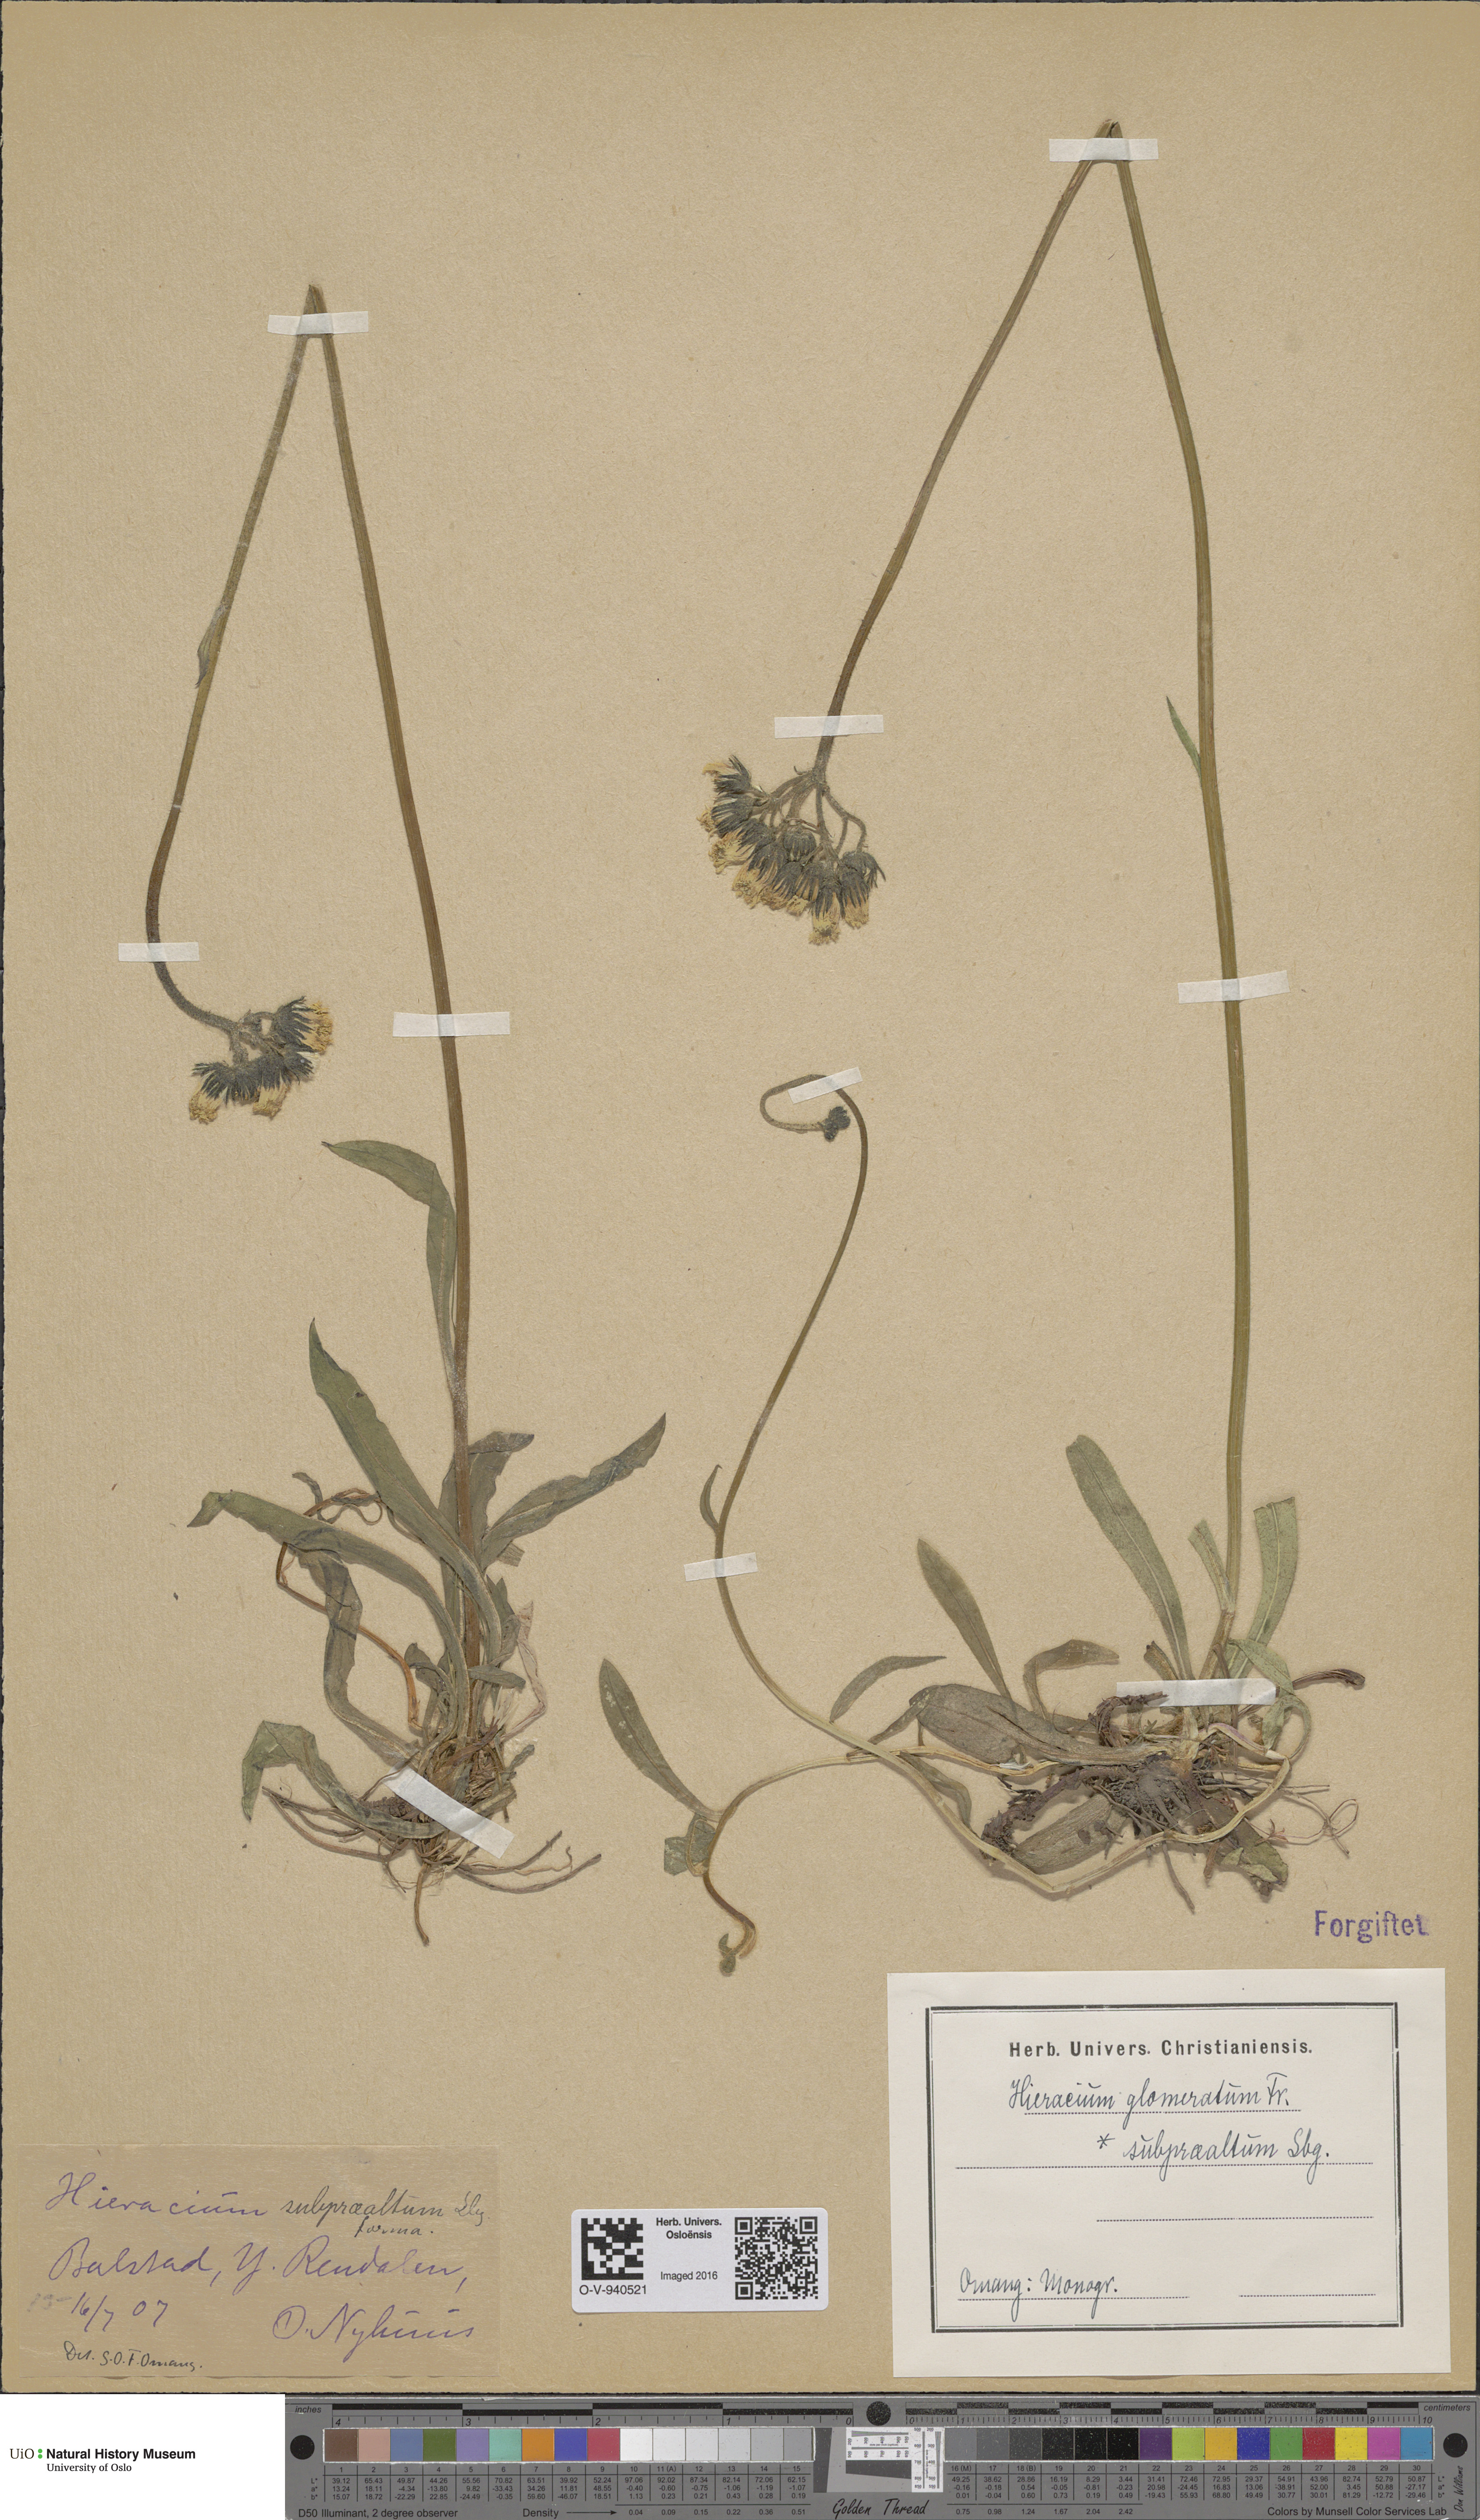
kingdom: Plantae
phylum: Tracheophyta
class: Magnoliopsida
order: Asterales
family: Asteraceae
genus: Pilosella
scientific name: Pilosella glomerata
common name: Queen devil hawkweed
